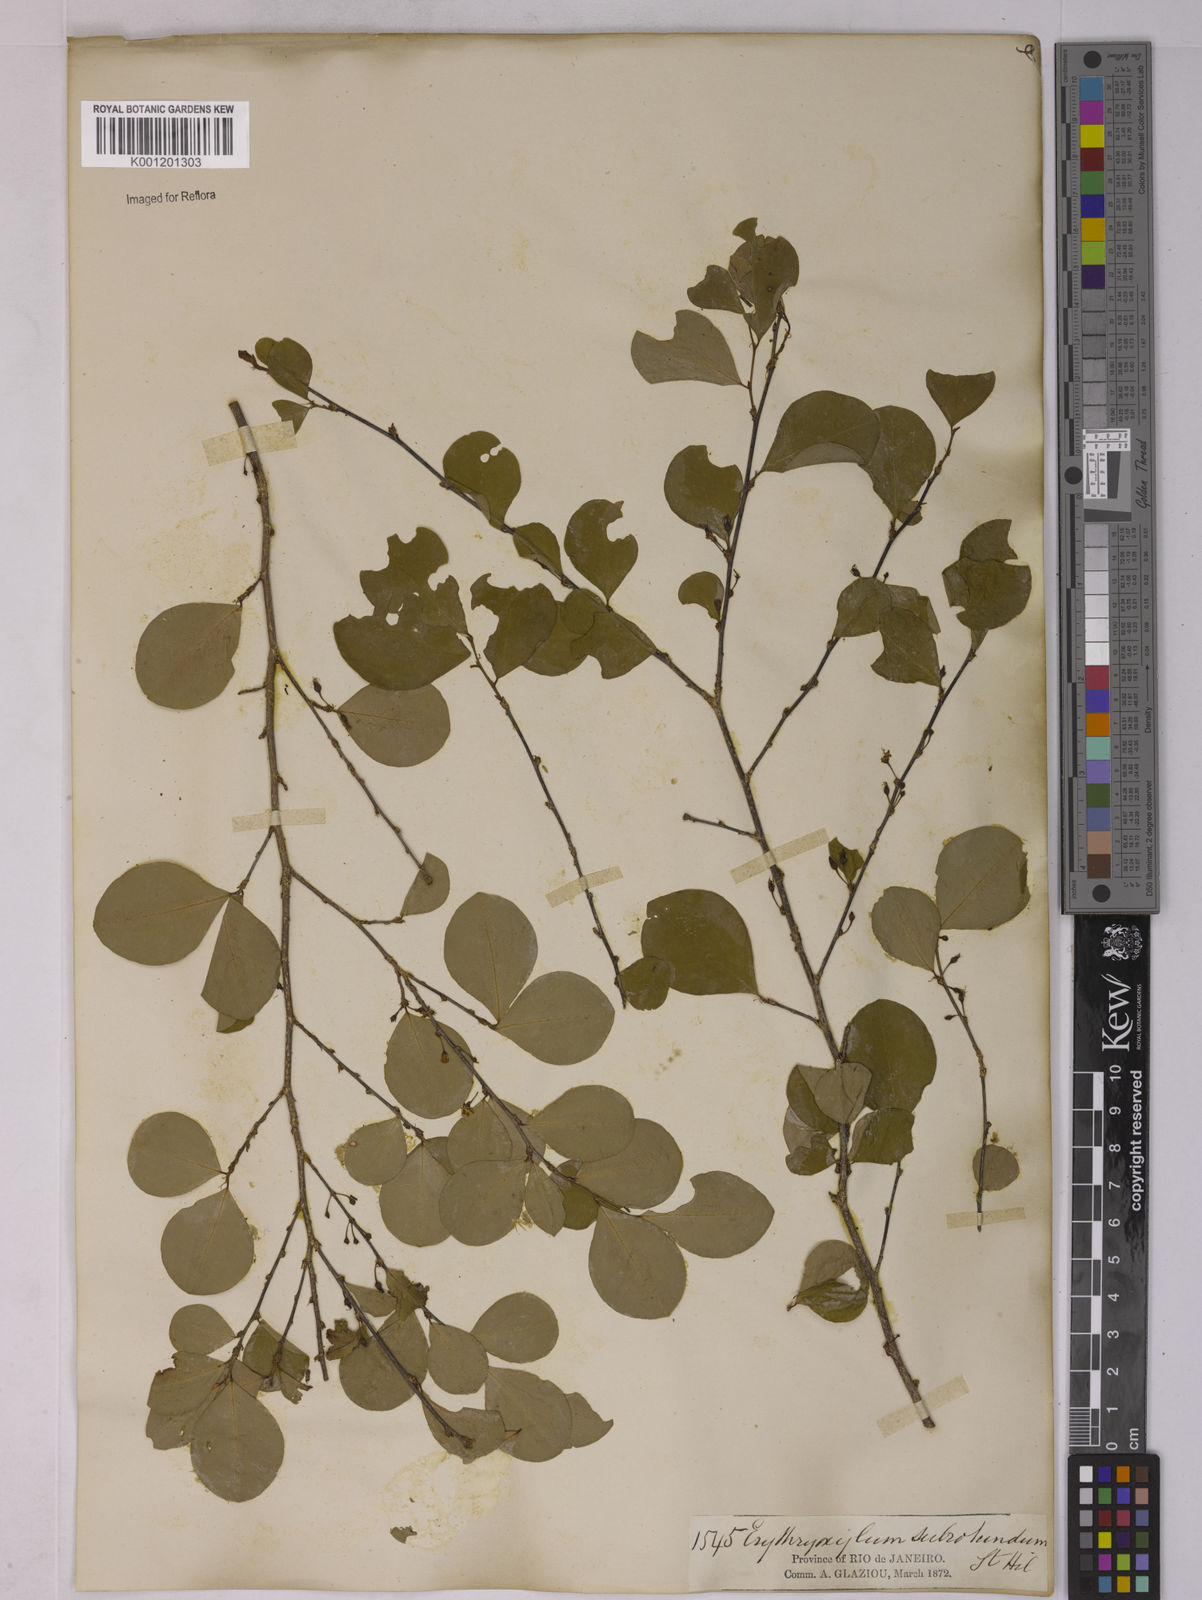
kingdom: Plantae
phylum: Tracheophyta
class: Magnoliopsida
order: Malpighiales
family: Erythroxylaceae
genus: Erythroxylum
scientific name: Erythroxylum subrotundum
